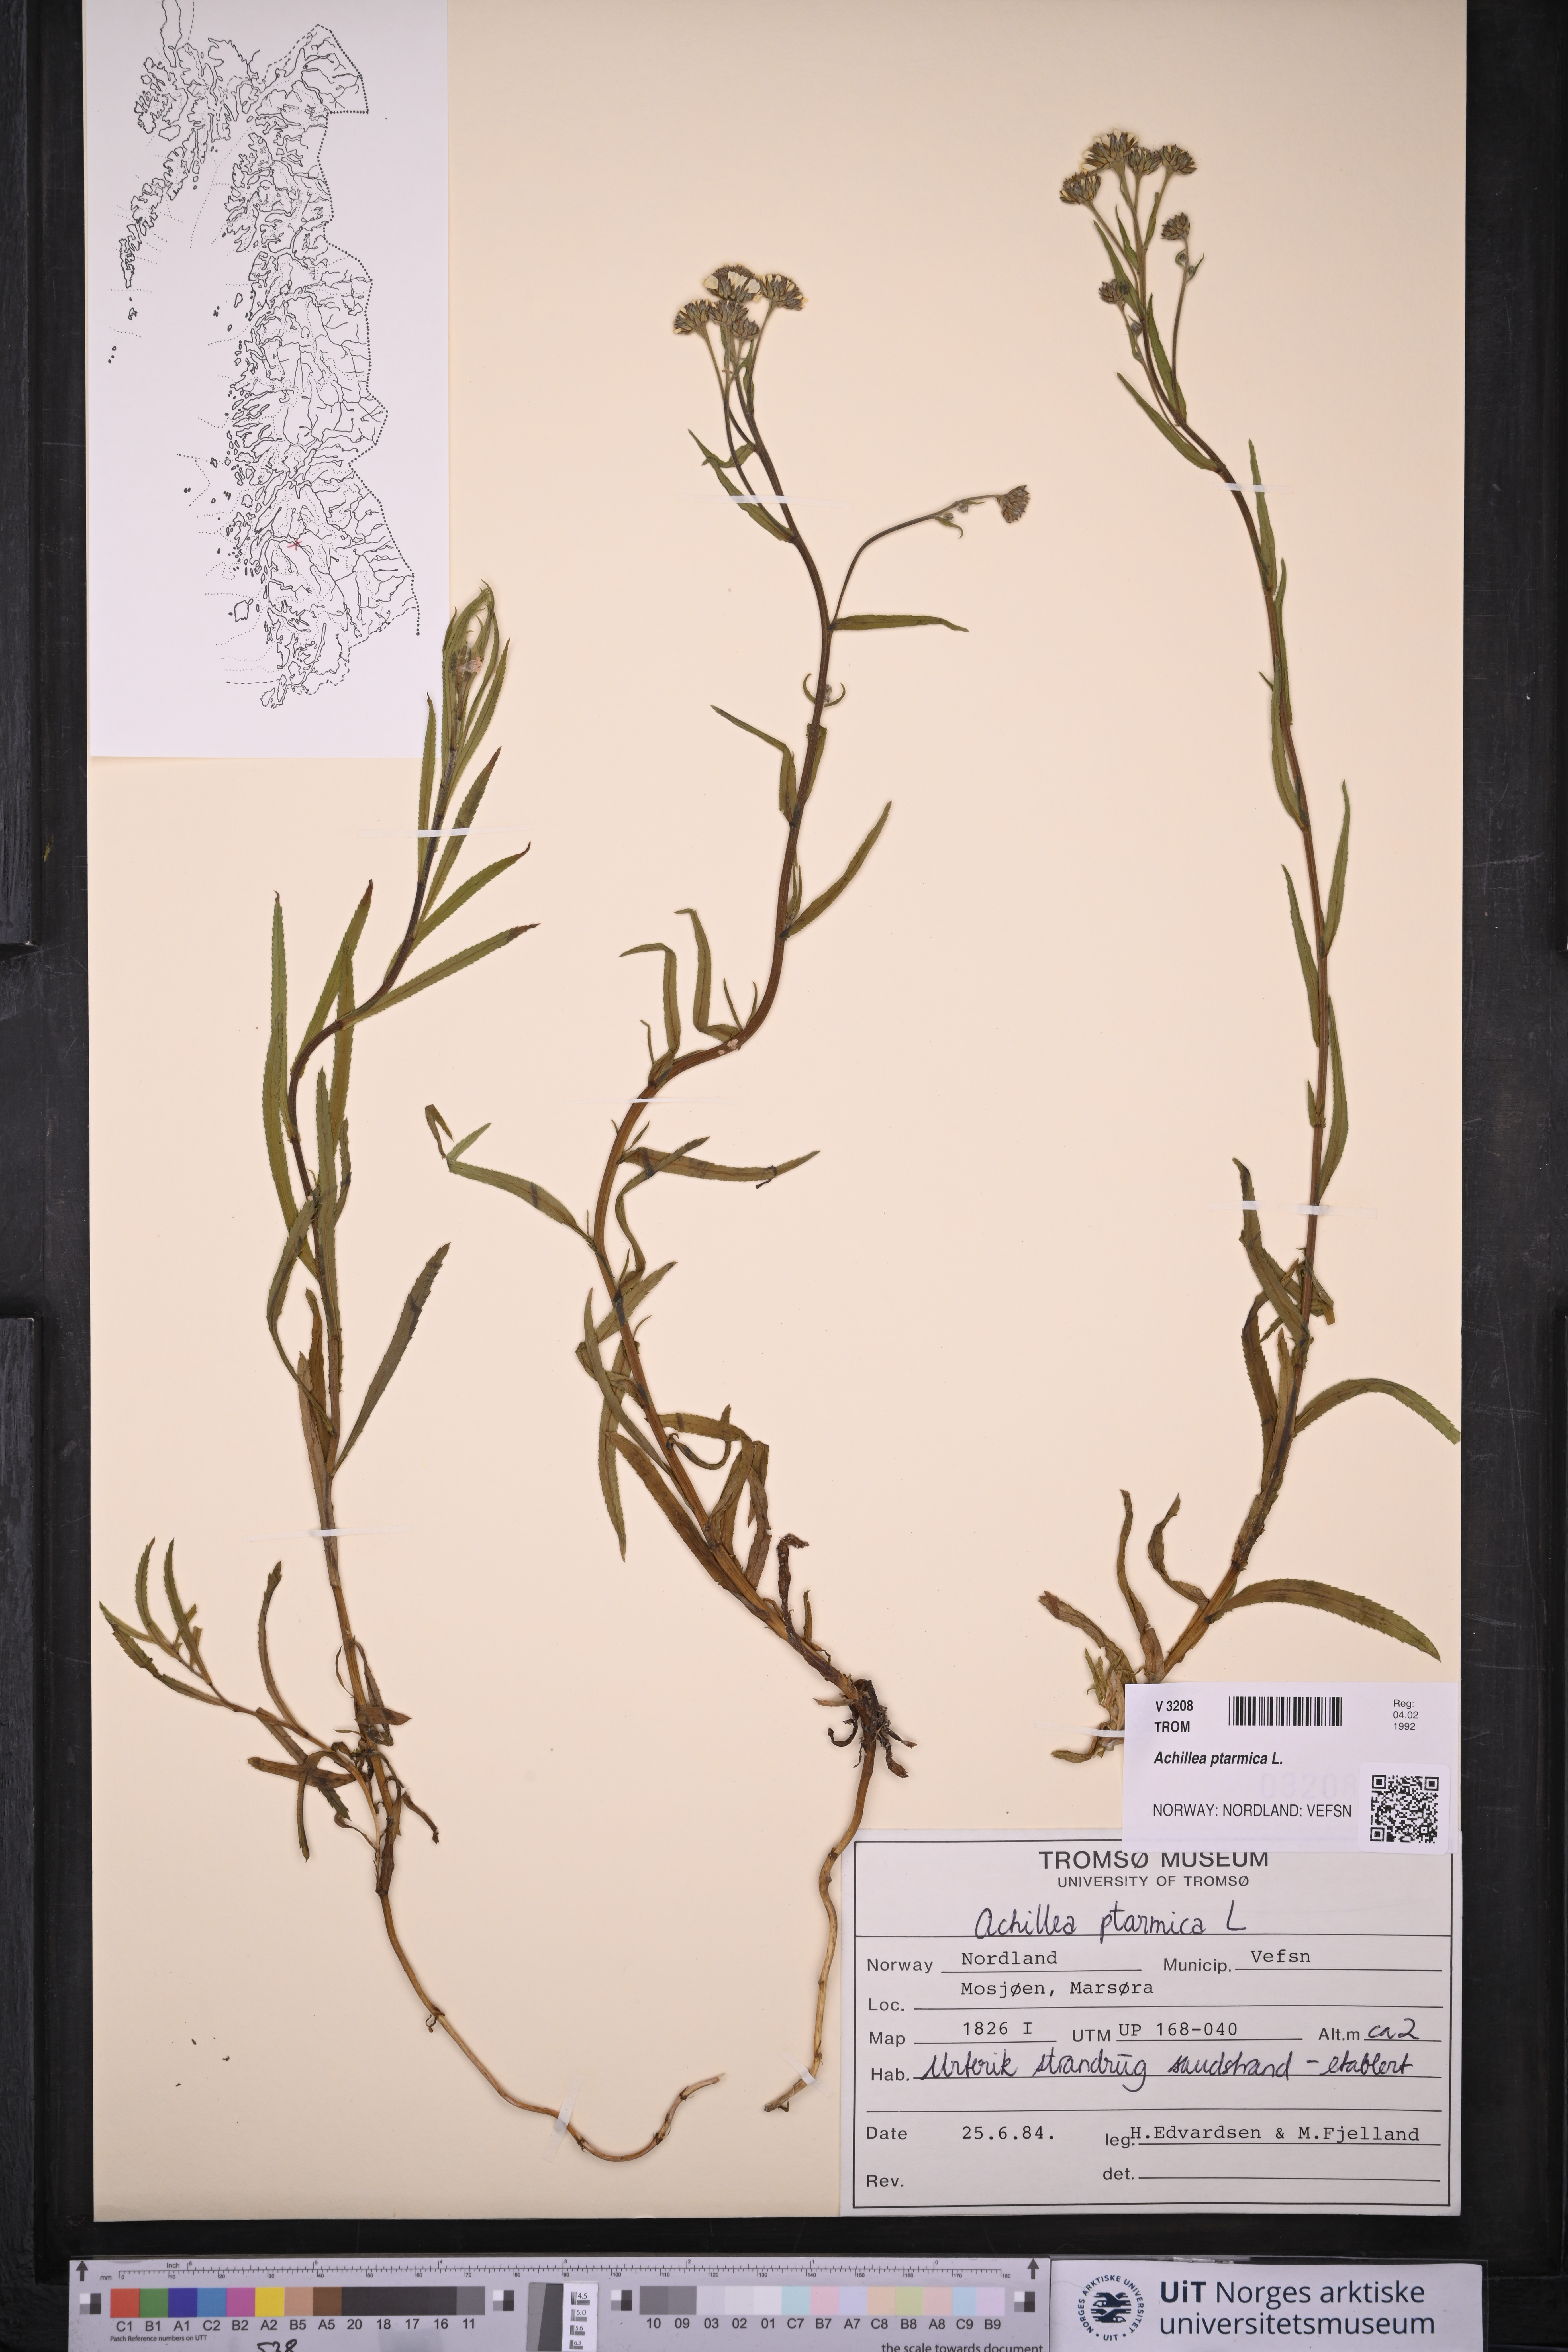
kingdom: Plantae
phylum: Tracheophyta
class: Magnoliopsida
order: Asterales
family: Asteraceae
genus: Achillea
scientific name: Achillea ptarmica
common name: Sneezeweed
